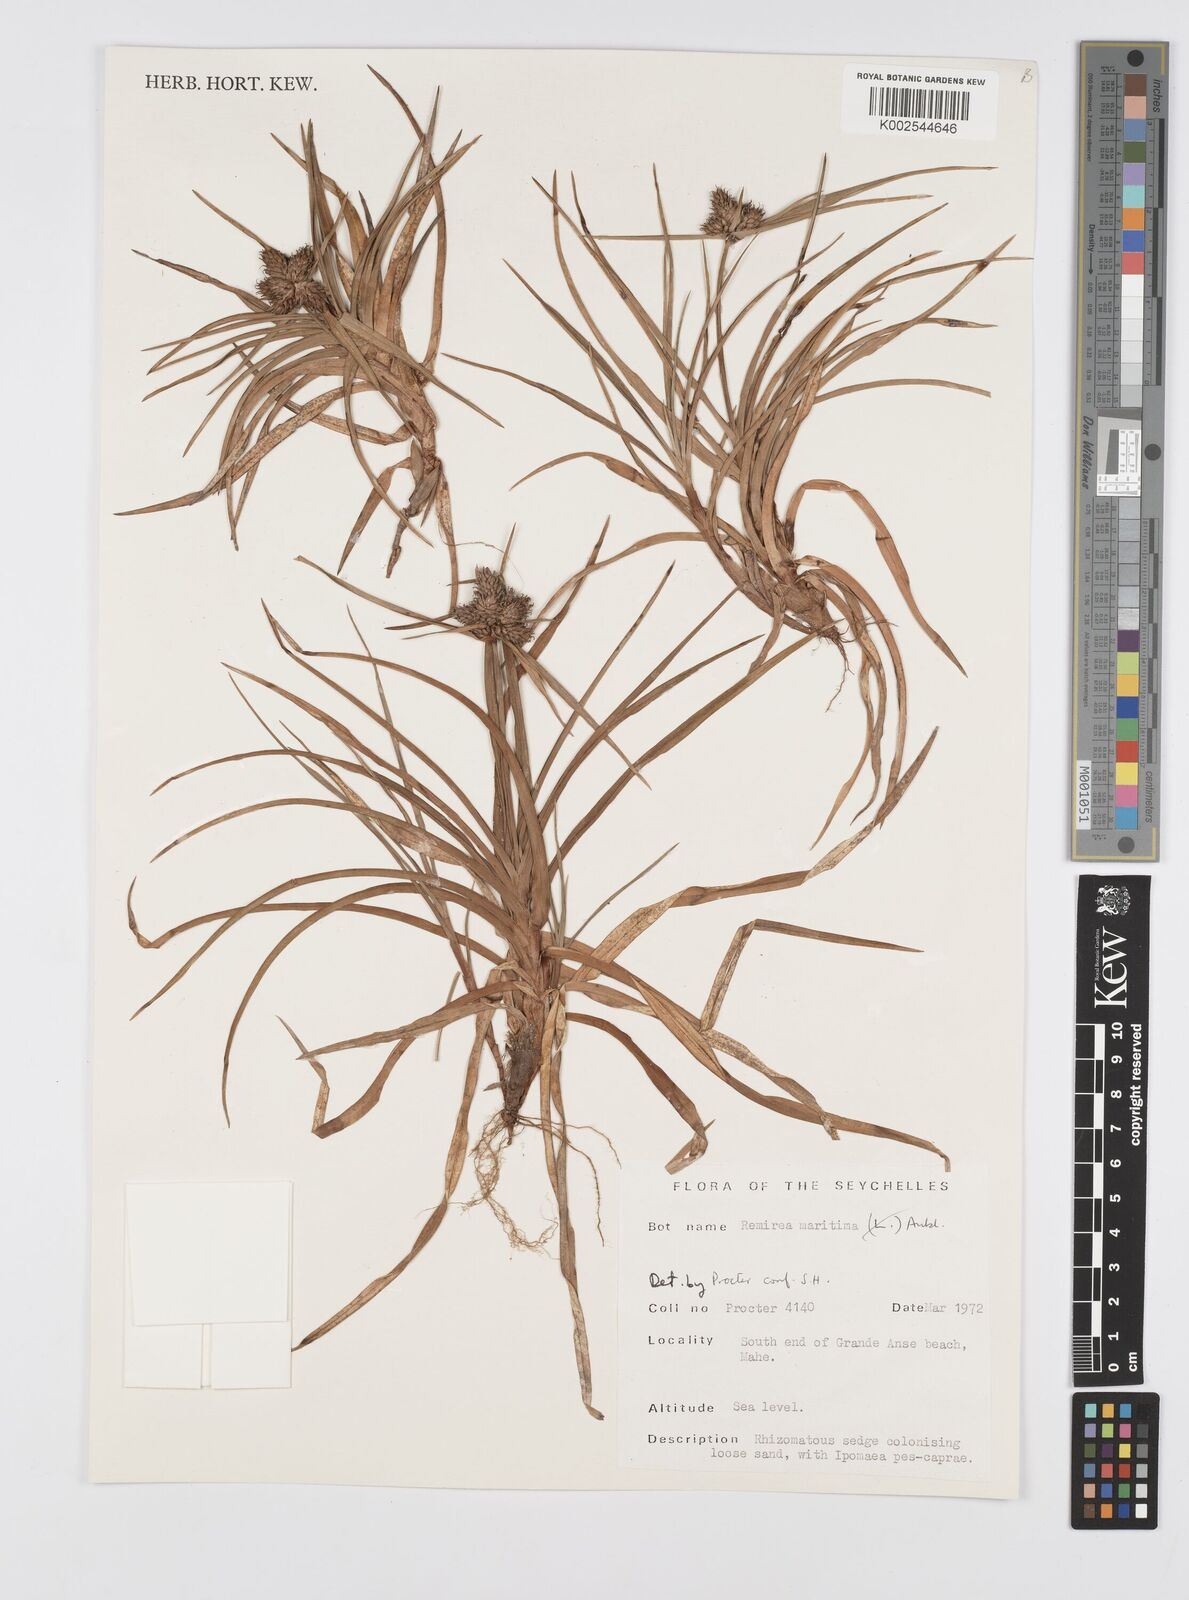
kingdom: Plantae
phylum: Tracheophyta
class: Liliopsida
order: Poales
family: Cyperaceae
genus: Cyperus
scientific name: Cyperus
